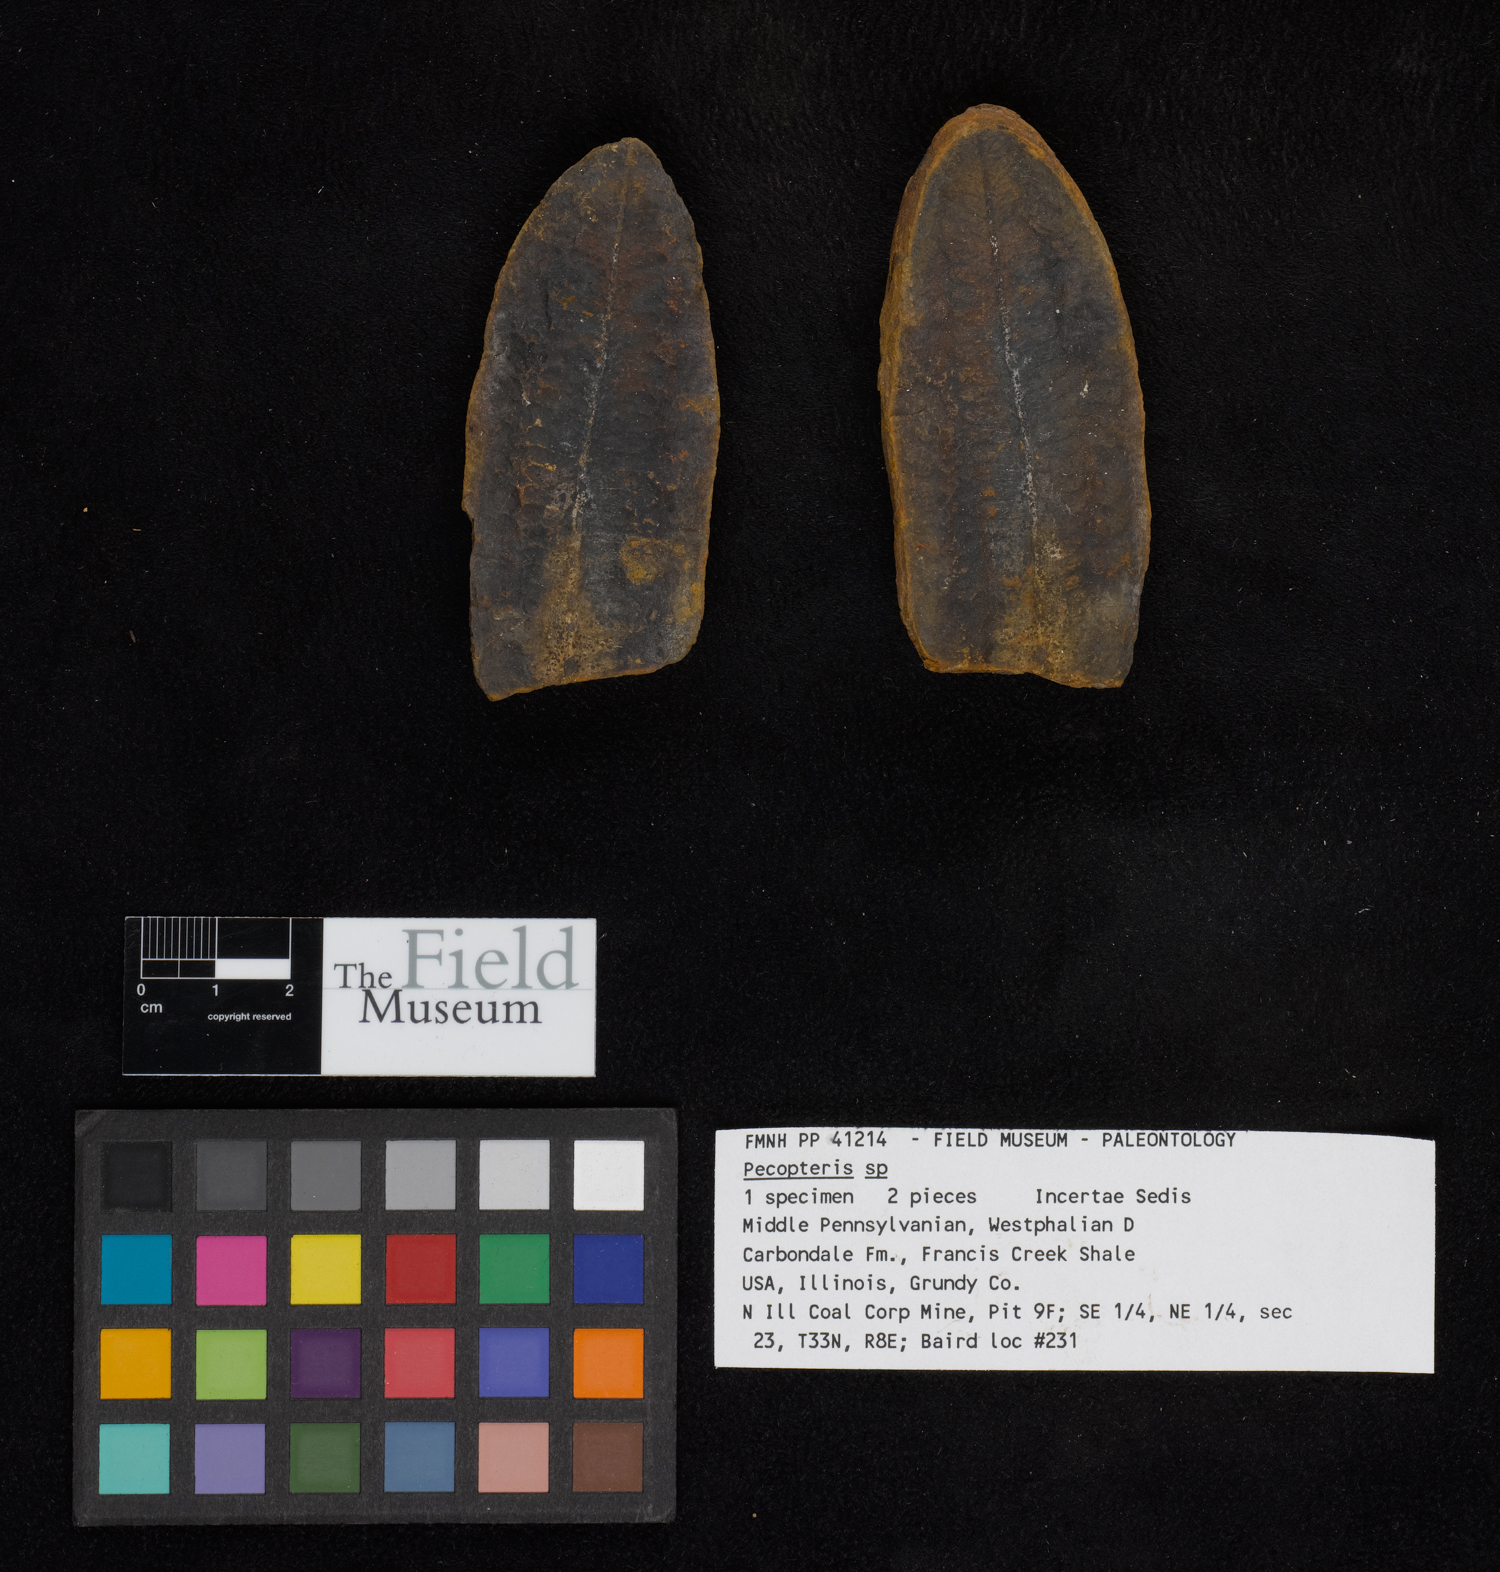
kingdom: Plantae
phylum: Tracheophyta
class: Polypodiopsida
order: Marattiales
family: Asterothecaceae
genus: Pecopteris
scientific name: Pecopteris
